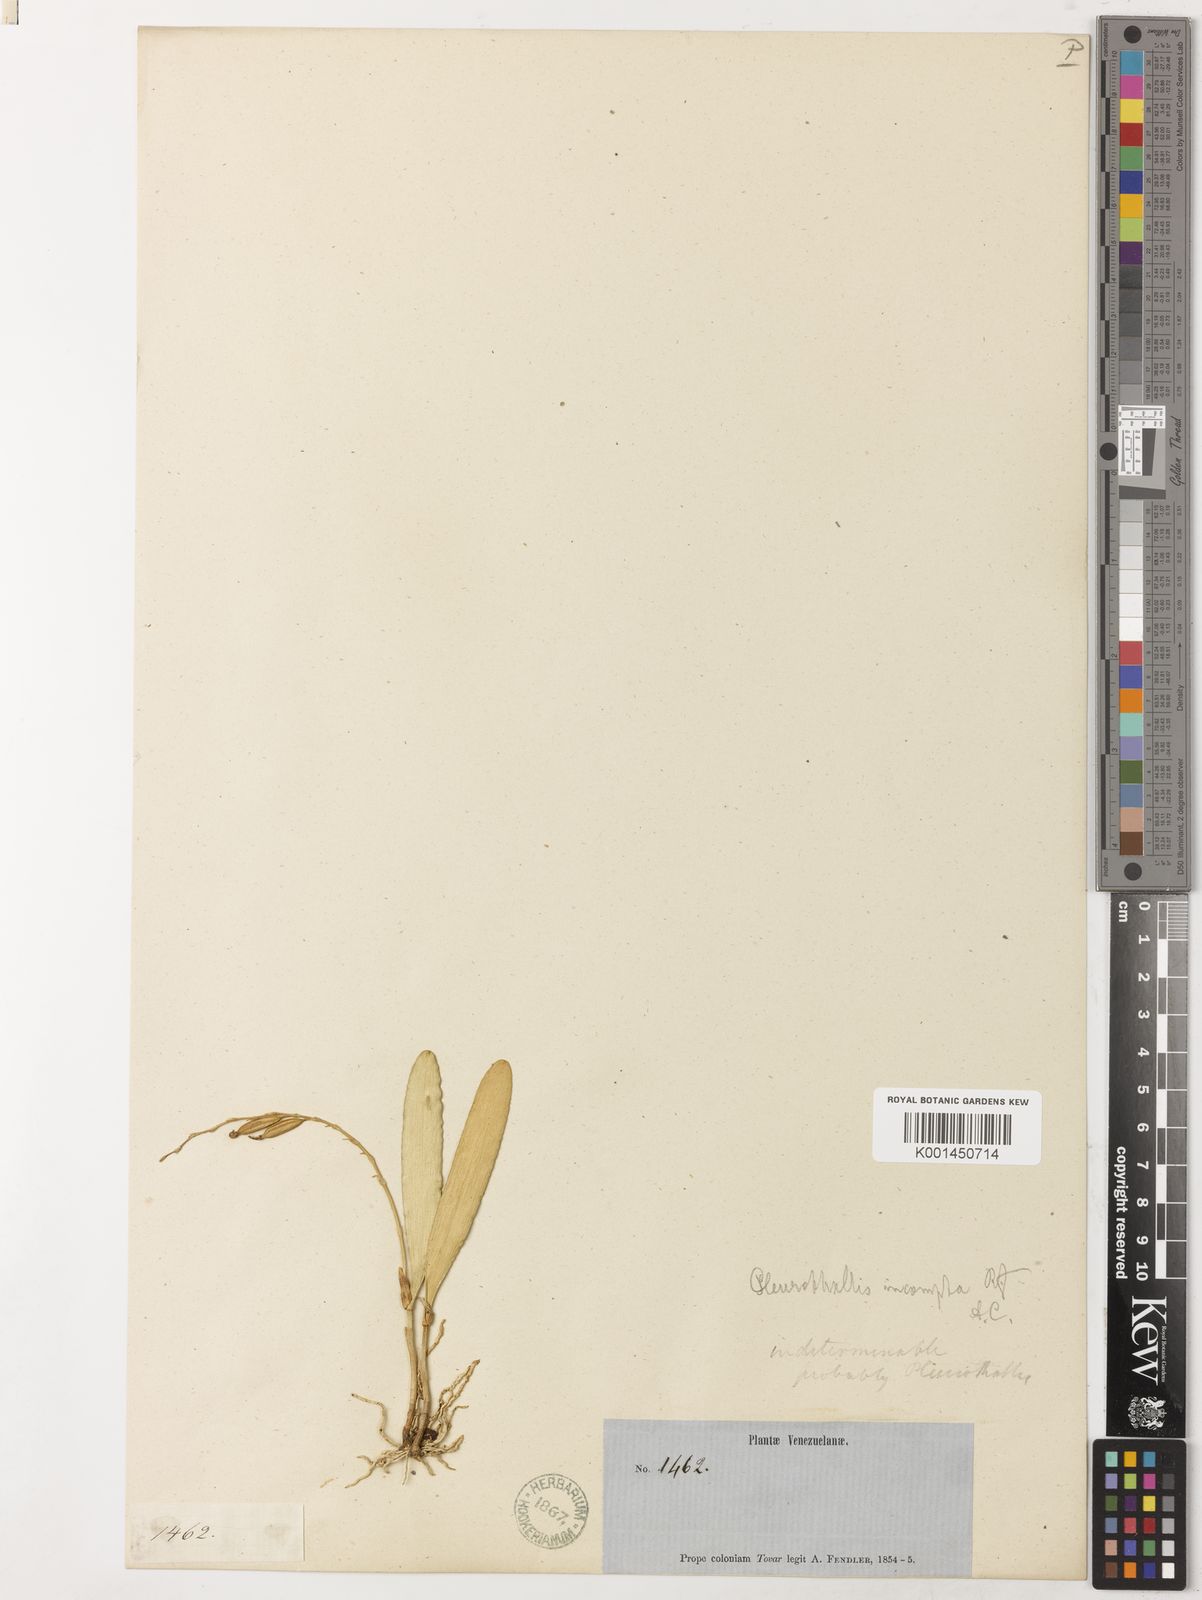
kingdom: Plantae
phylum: Tracheophyta
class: Liliopsida
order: Asparagales
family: Orchidaceae
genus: Pleurothallis
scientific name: Pleurothallis quadrifida
